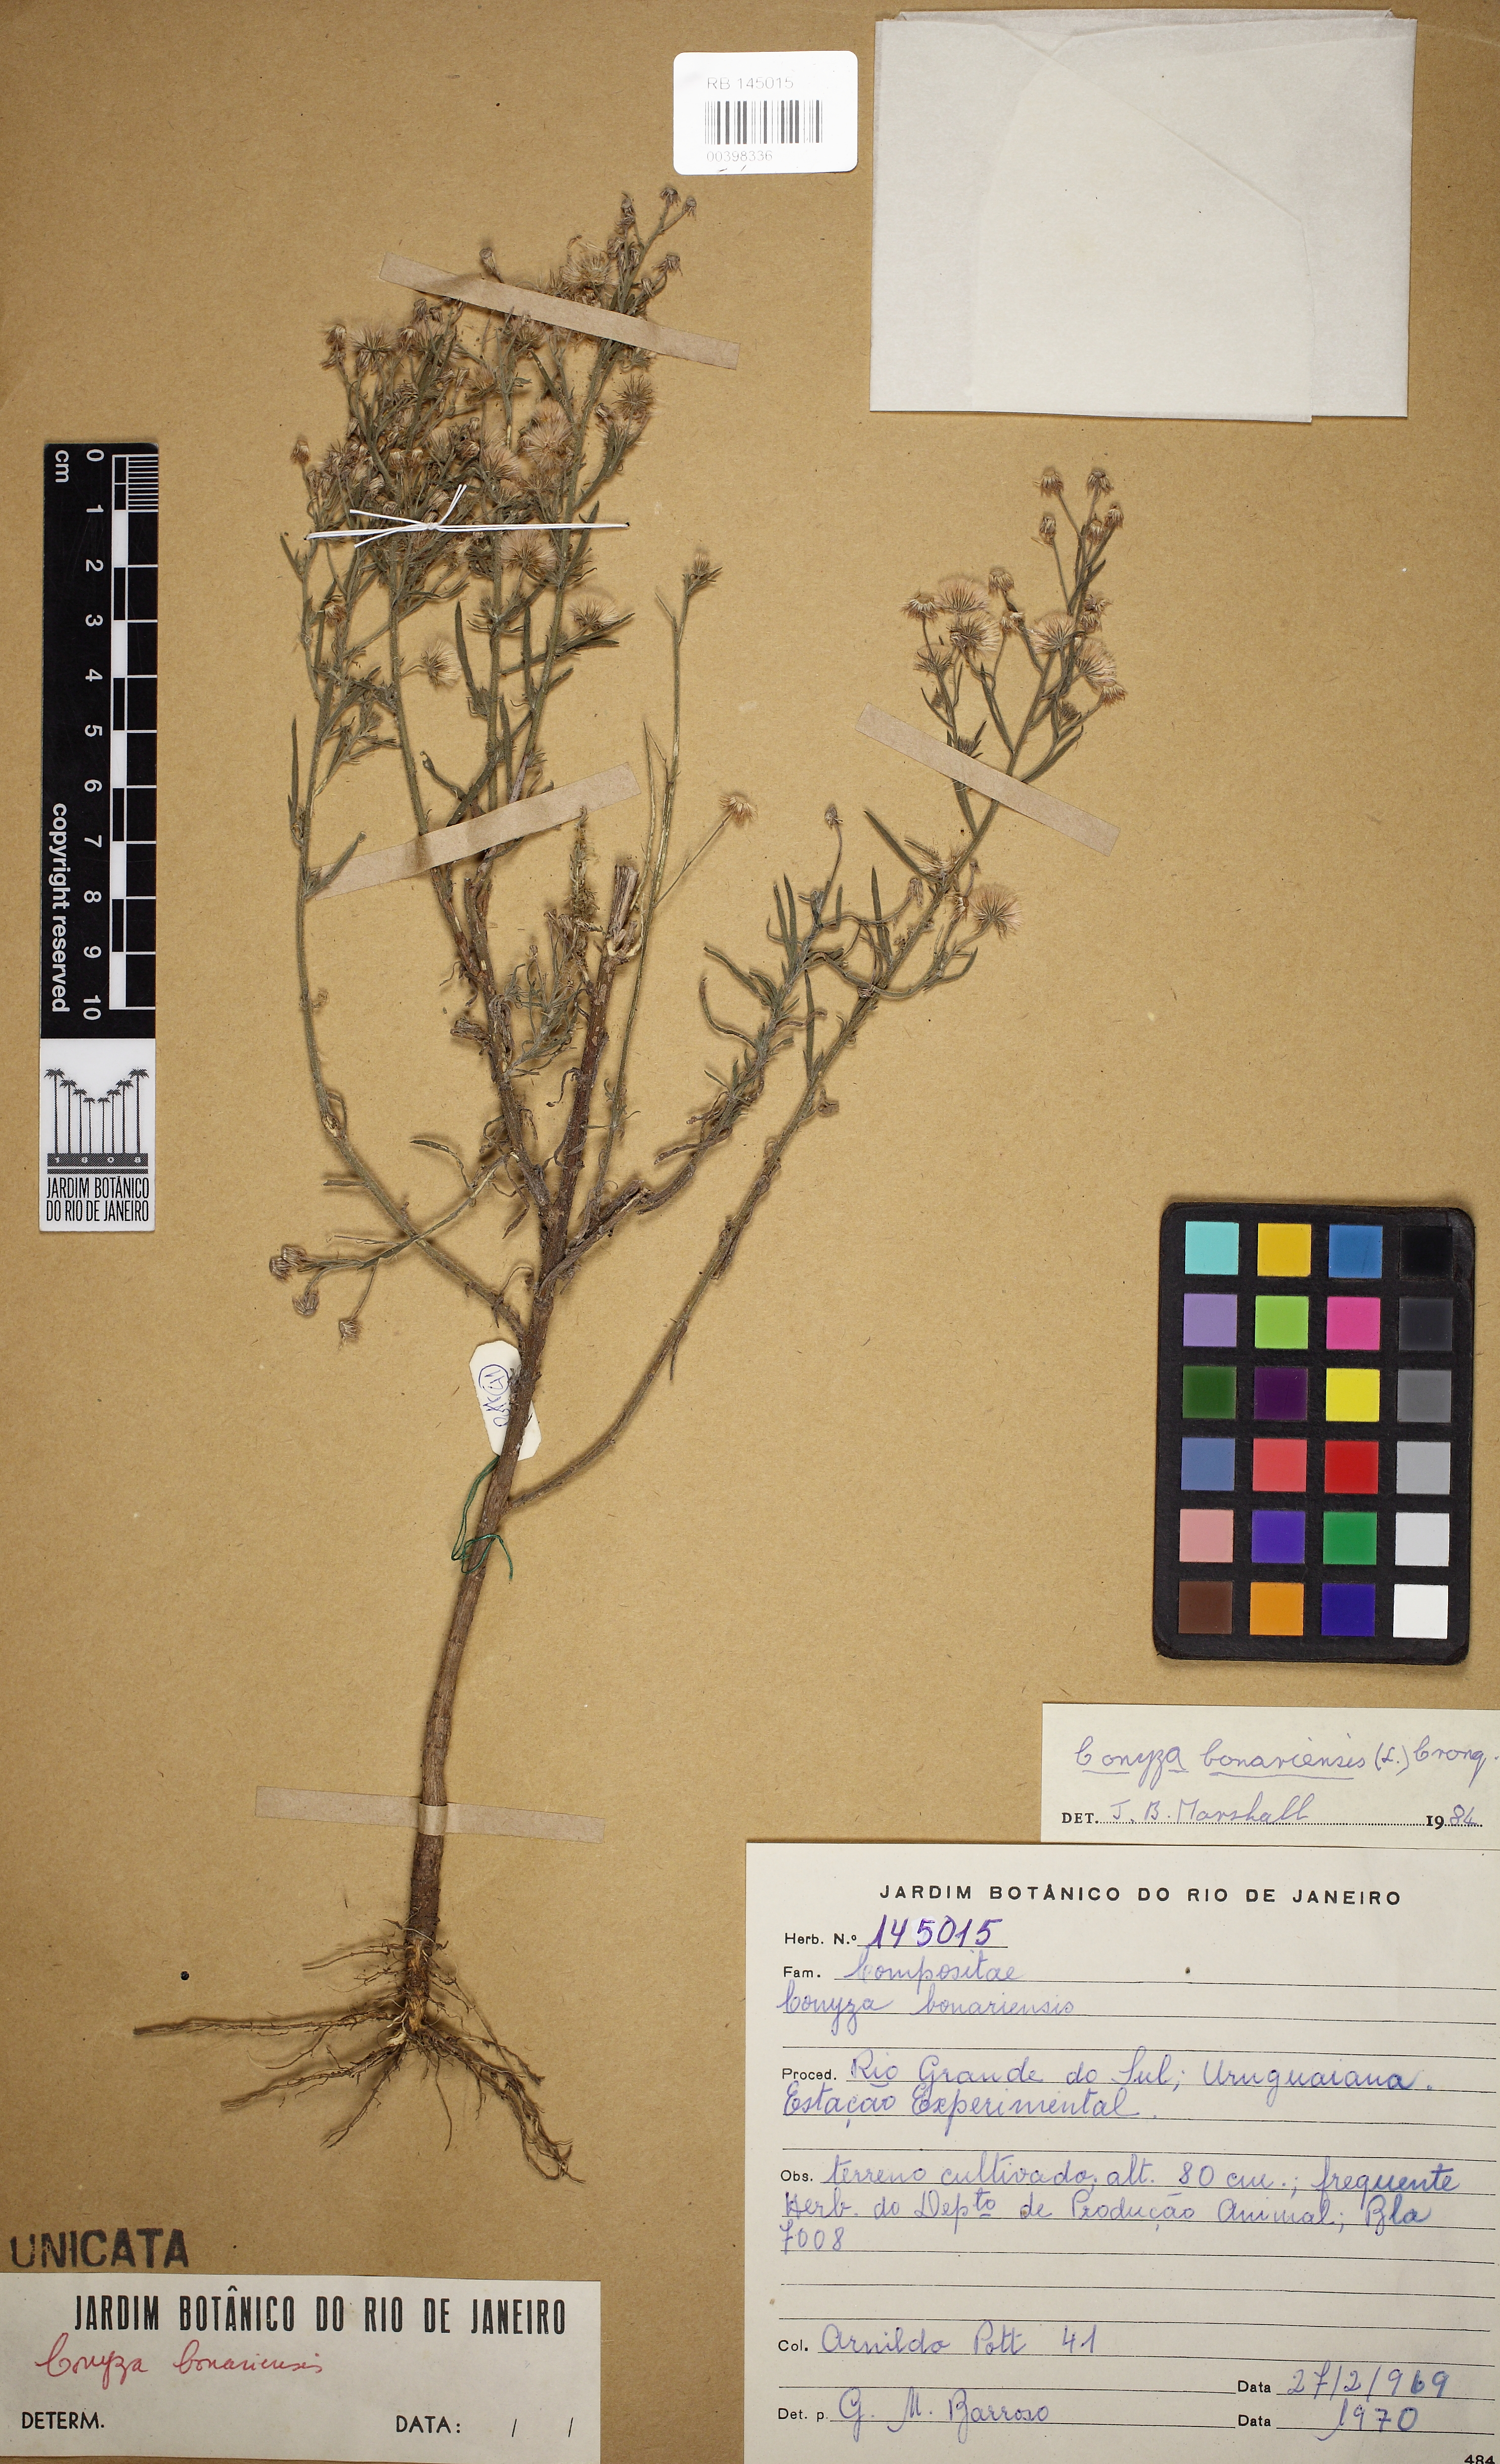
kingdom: Plantae
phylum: Tracheophyta
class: Magnoliopsida
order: Asterales
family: Asteraceae
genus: Erigeron
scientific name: Erigeron bonariensis
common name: Argentine fleabane
